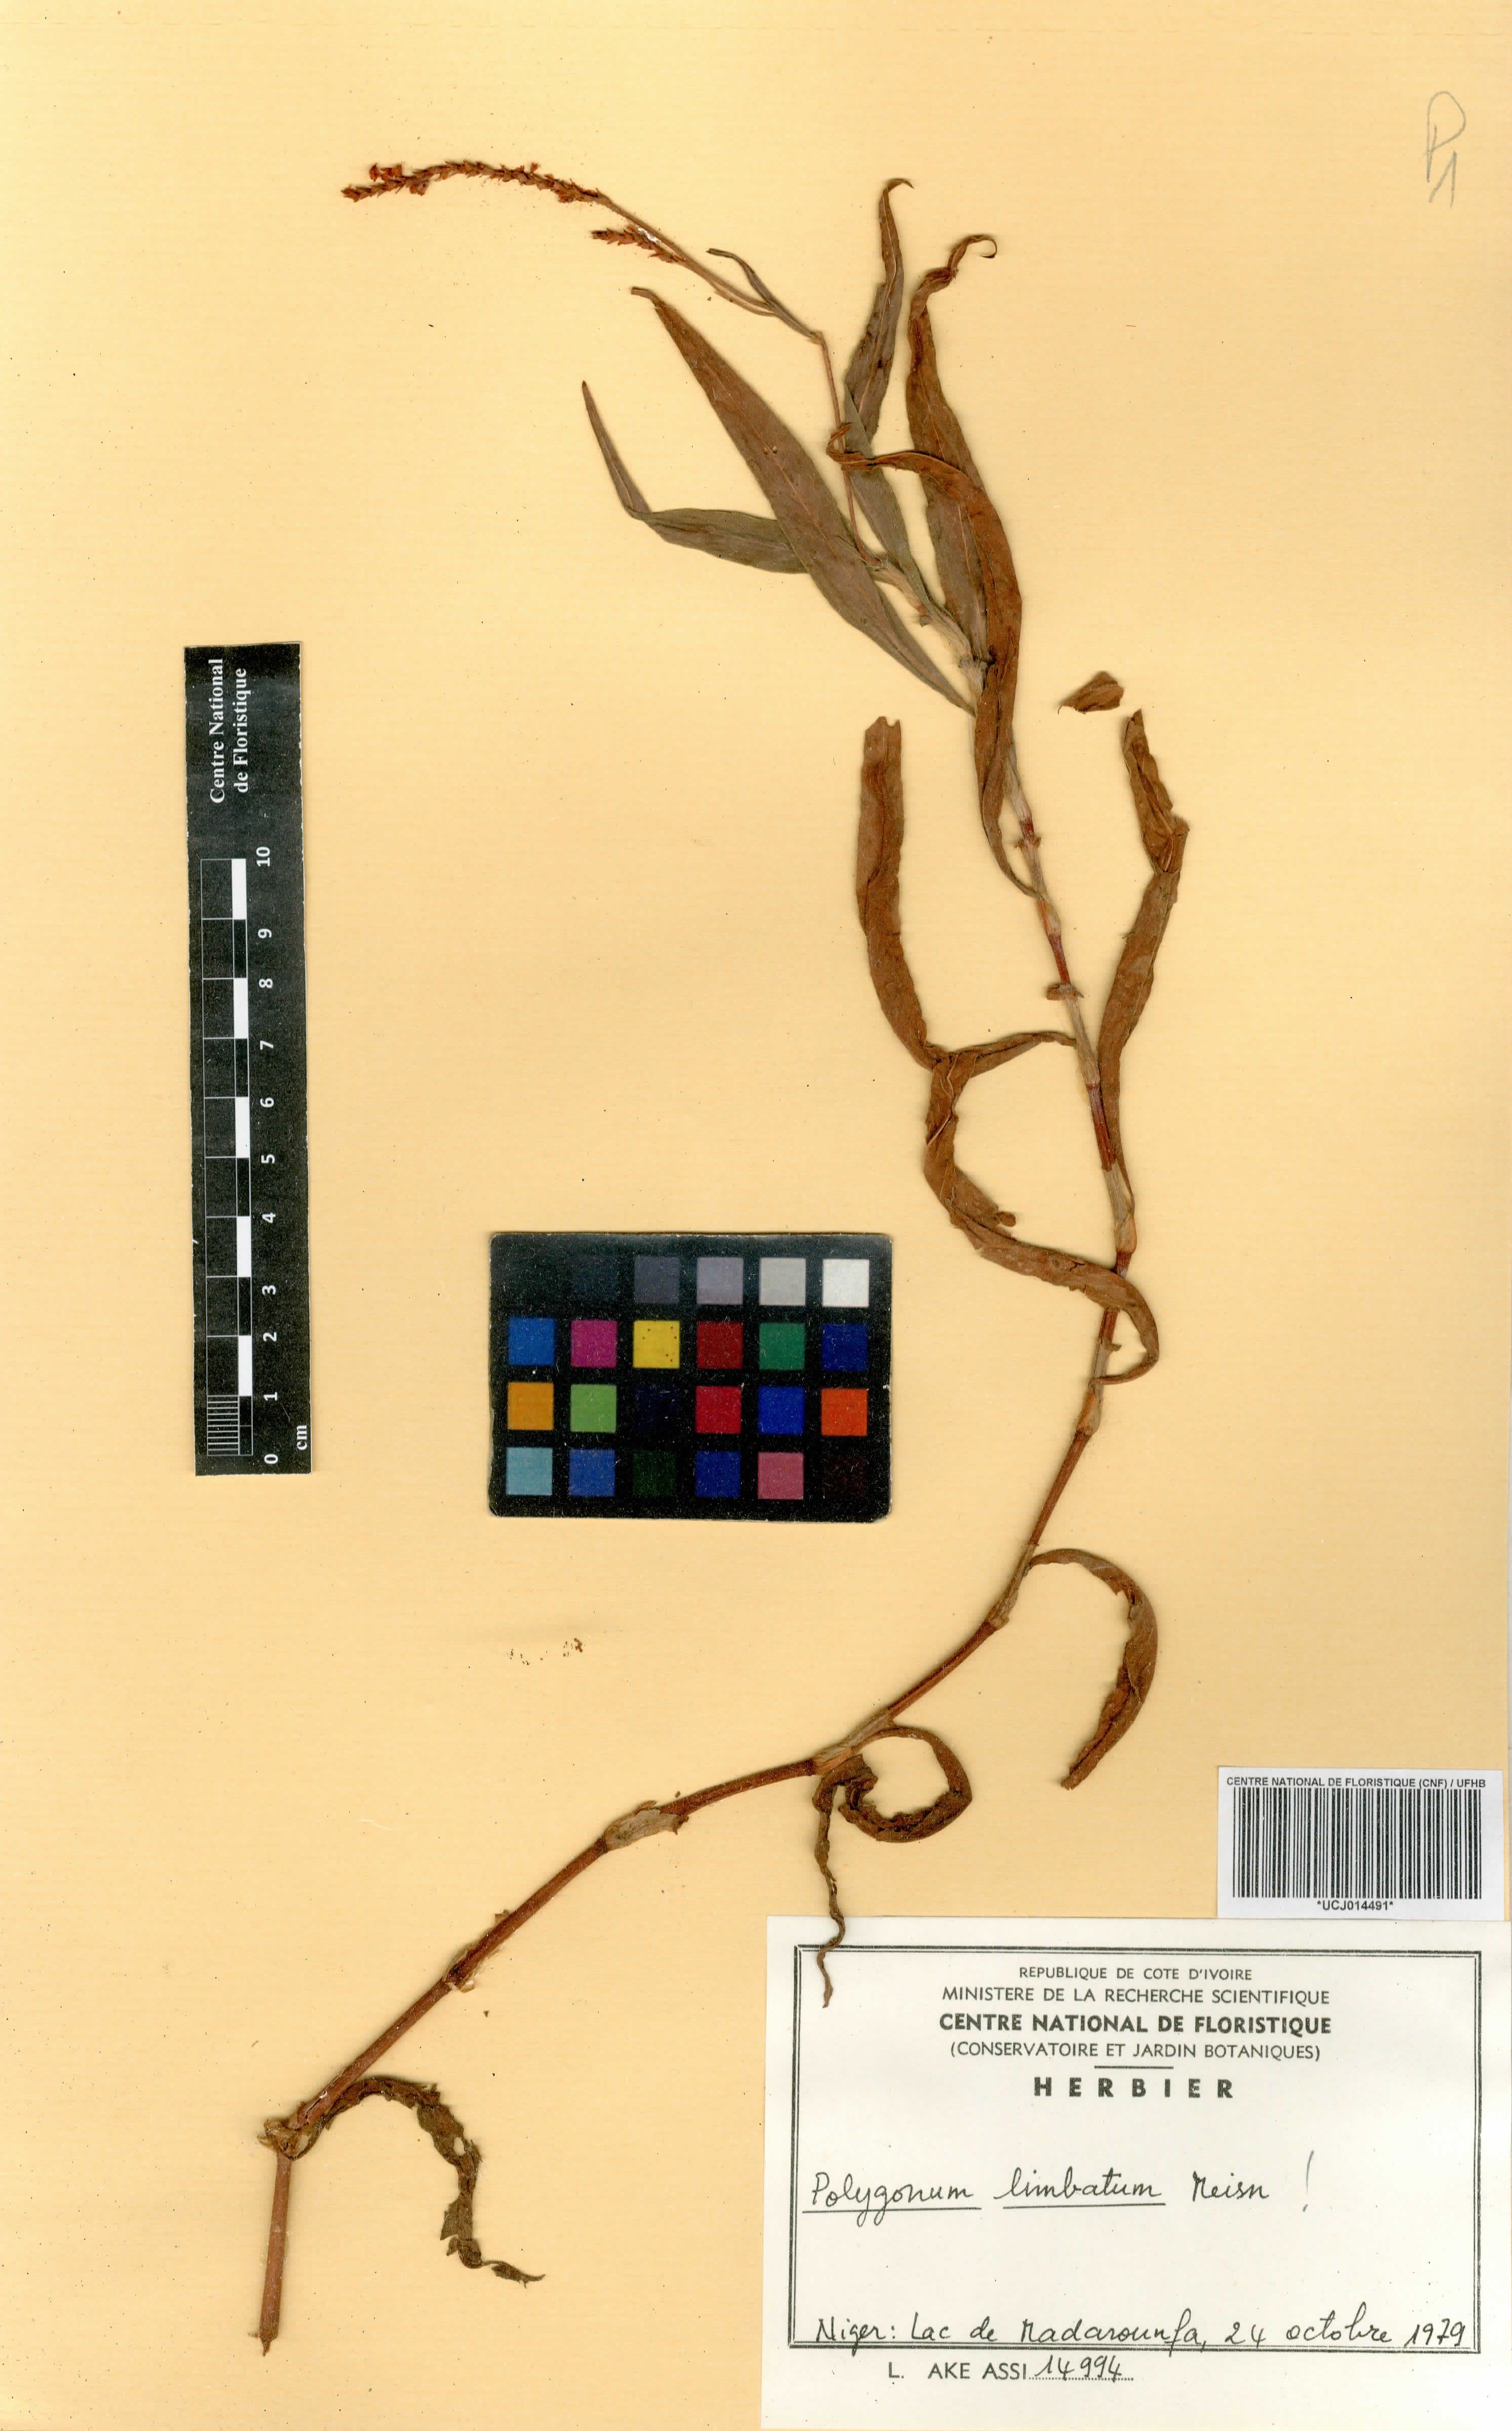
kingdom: Plantae
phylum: Tracheophyta
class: Magnoliopsida
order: Caryophyllales
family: Polygonaceae
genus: Persicaria
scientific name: Persicaria limbata
